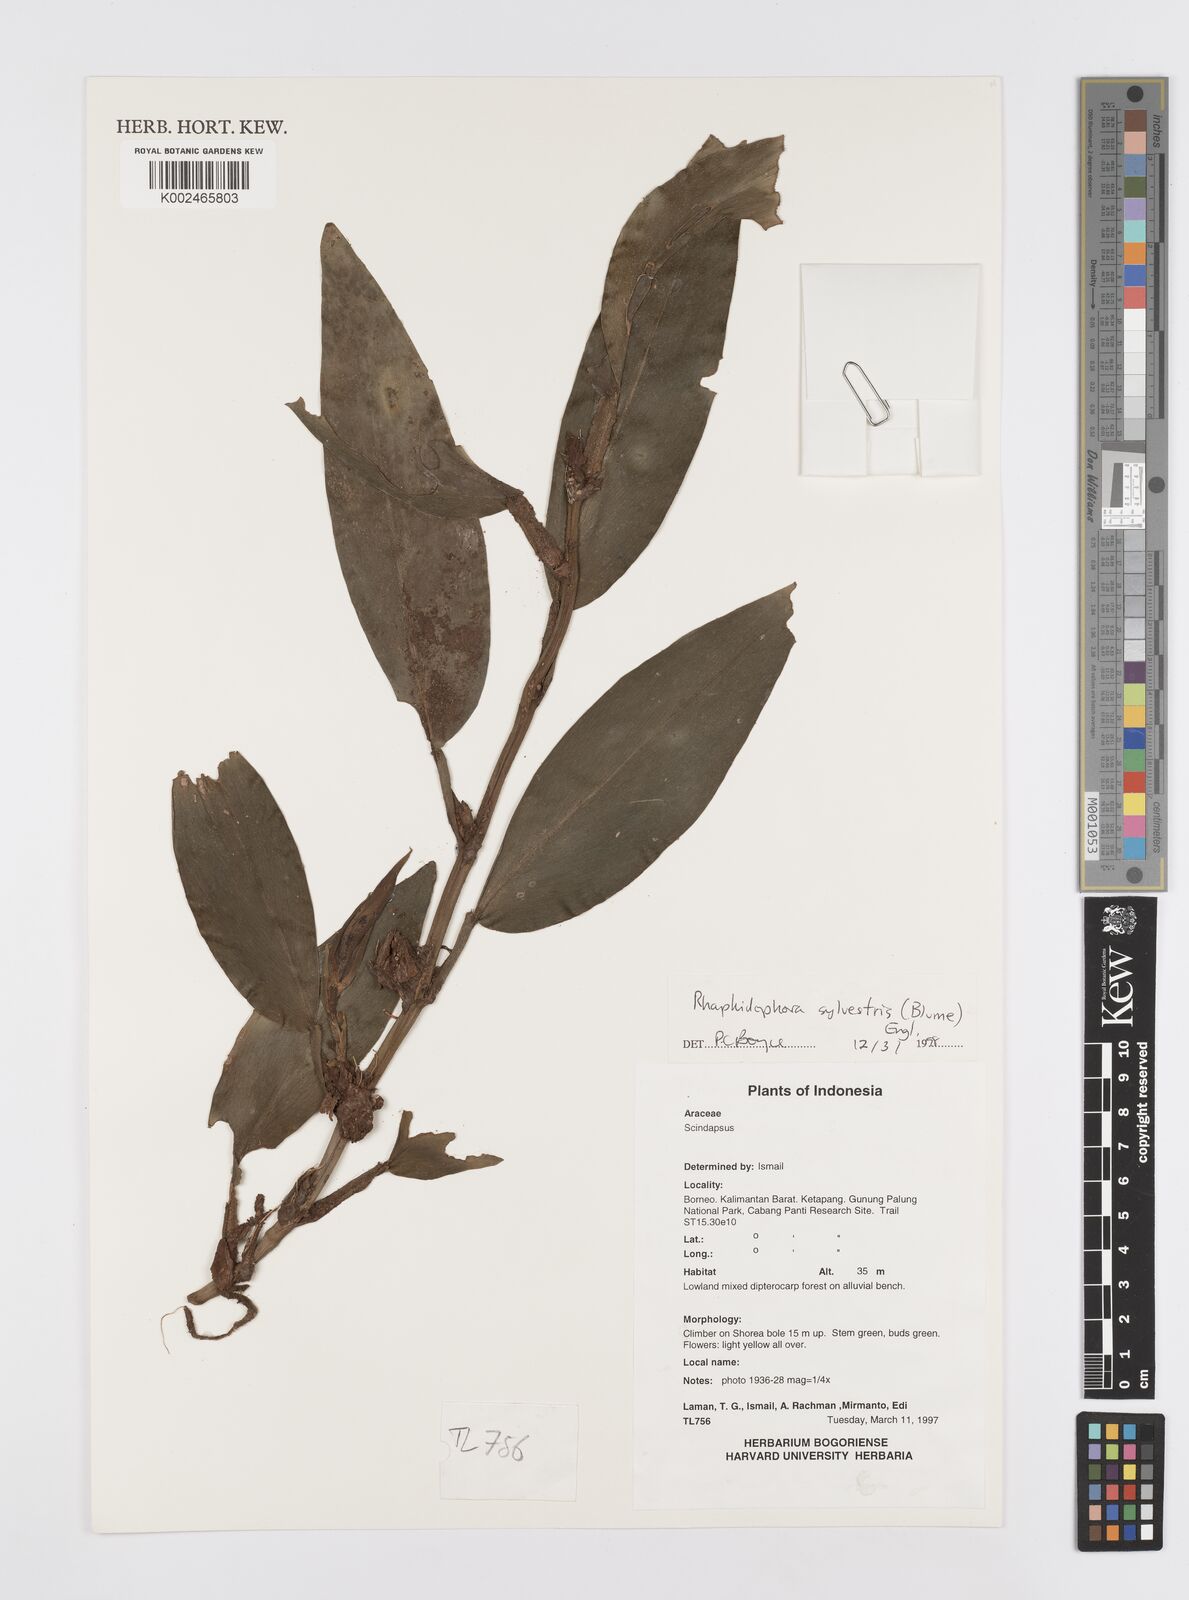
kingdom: Plantae
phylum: Tracheophyta
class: Liliopsida
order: Alismatales
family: Araceae
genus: Rhaphidophora
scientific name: Rhaphidophora sylvestris
